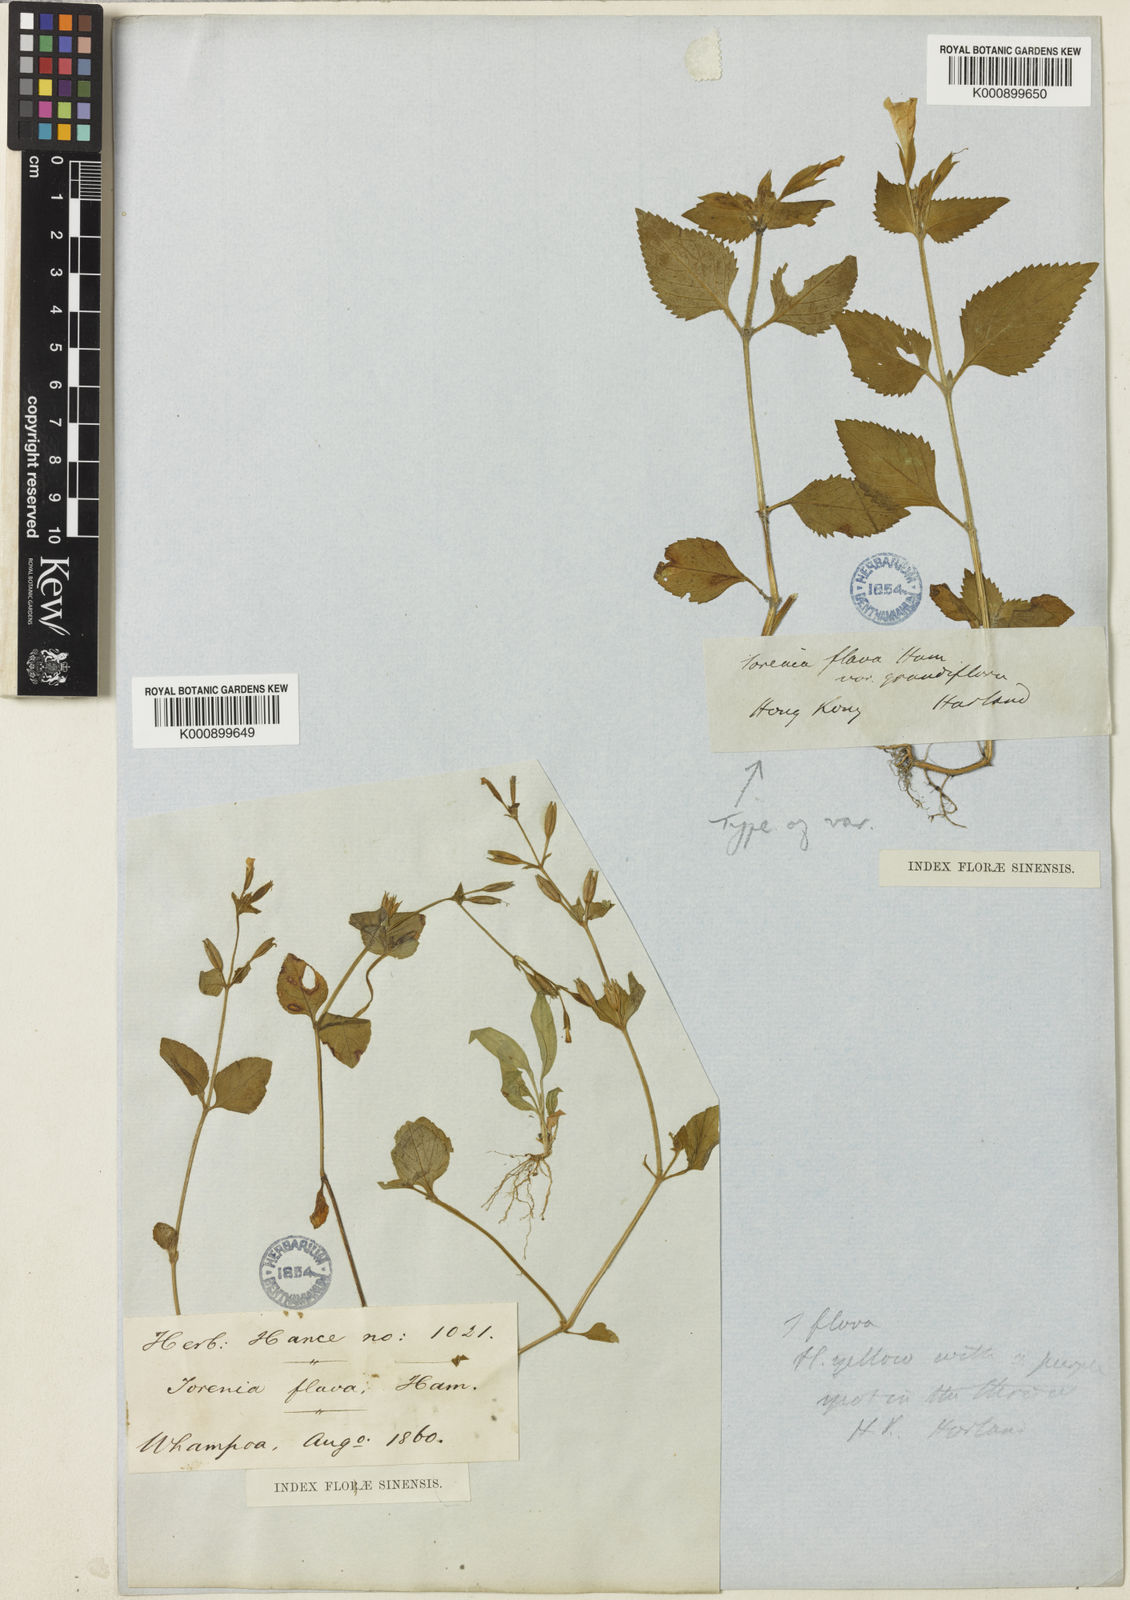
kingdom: Plantae
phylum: Tracheophyta
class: Magnoliopsida
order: Lamiales
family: Linderniaceae
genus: Torenia
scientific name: Torenia flava
